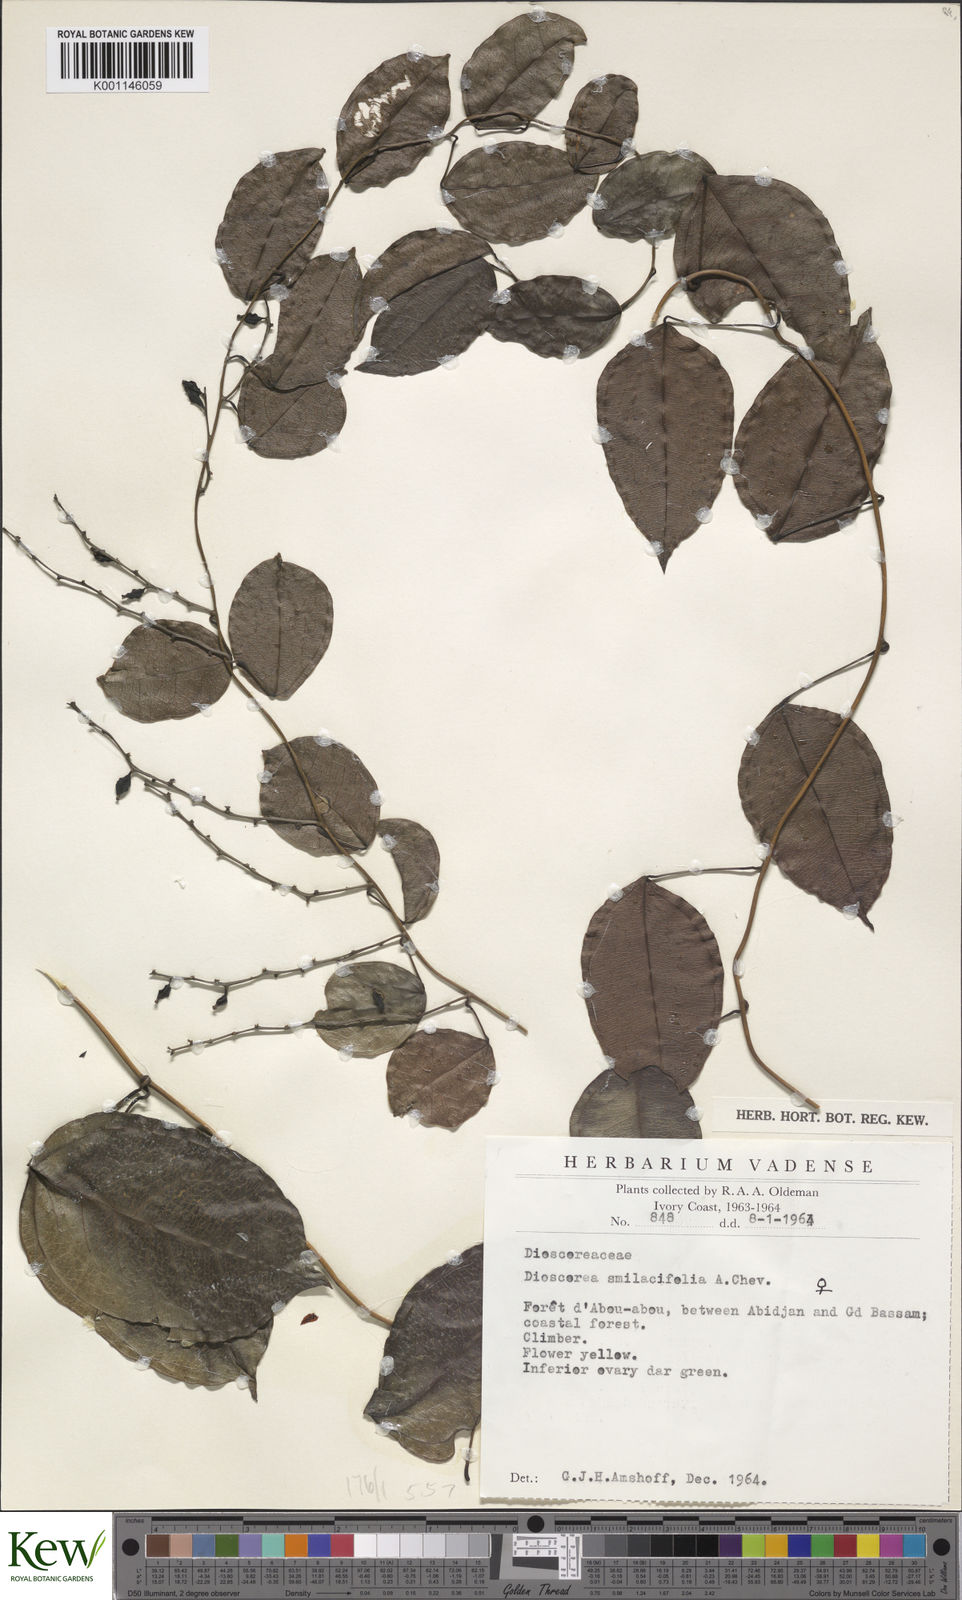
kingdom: Plantae
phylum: Tracheophyta
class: Liliopsida
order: Dioscoreales
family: Dioscoreaceae
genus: Dioscorea
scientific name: Dioscorea smilacifolia
